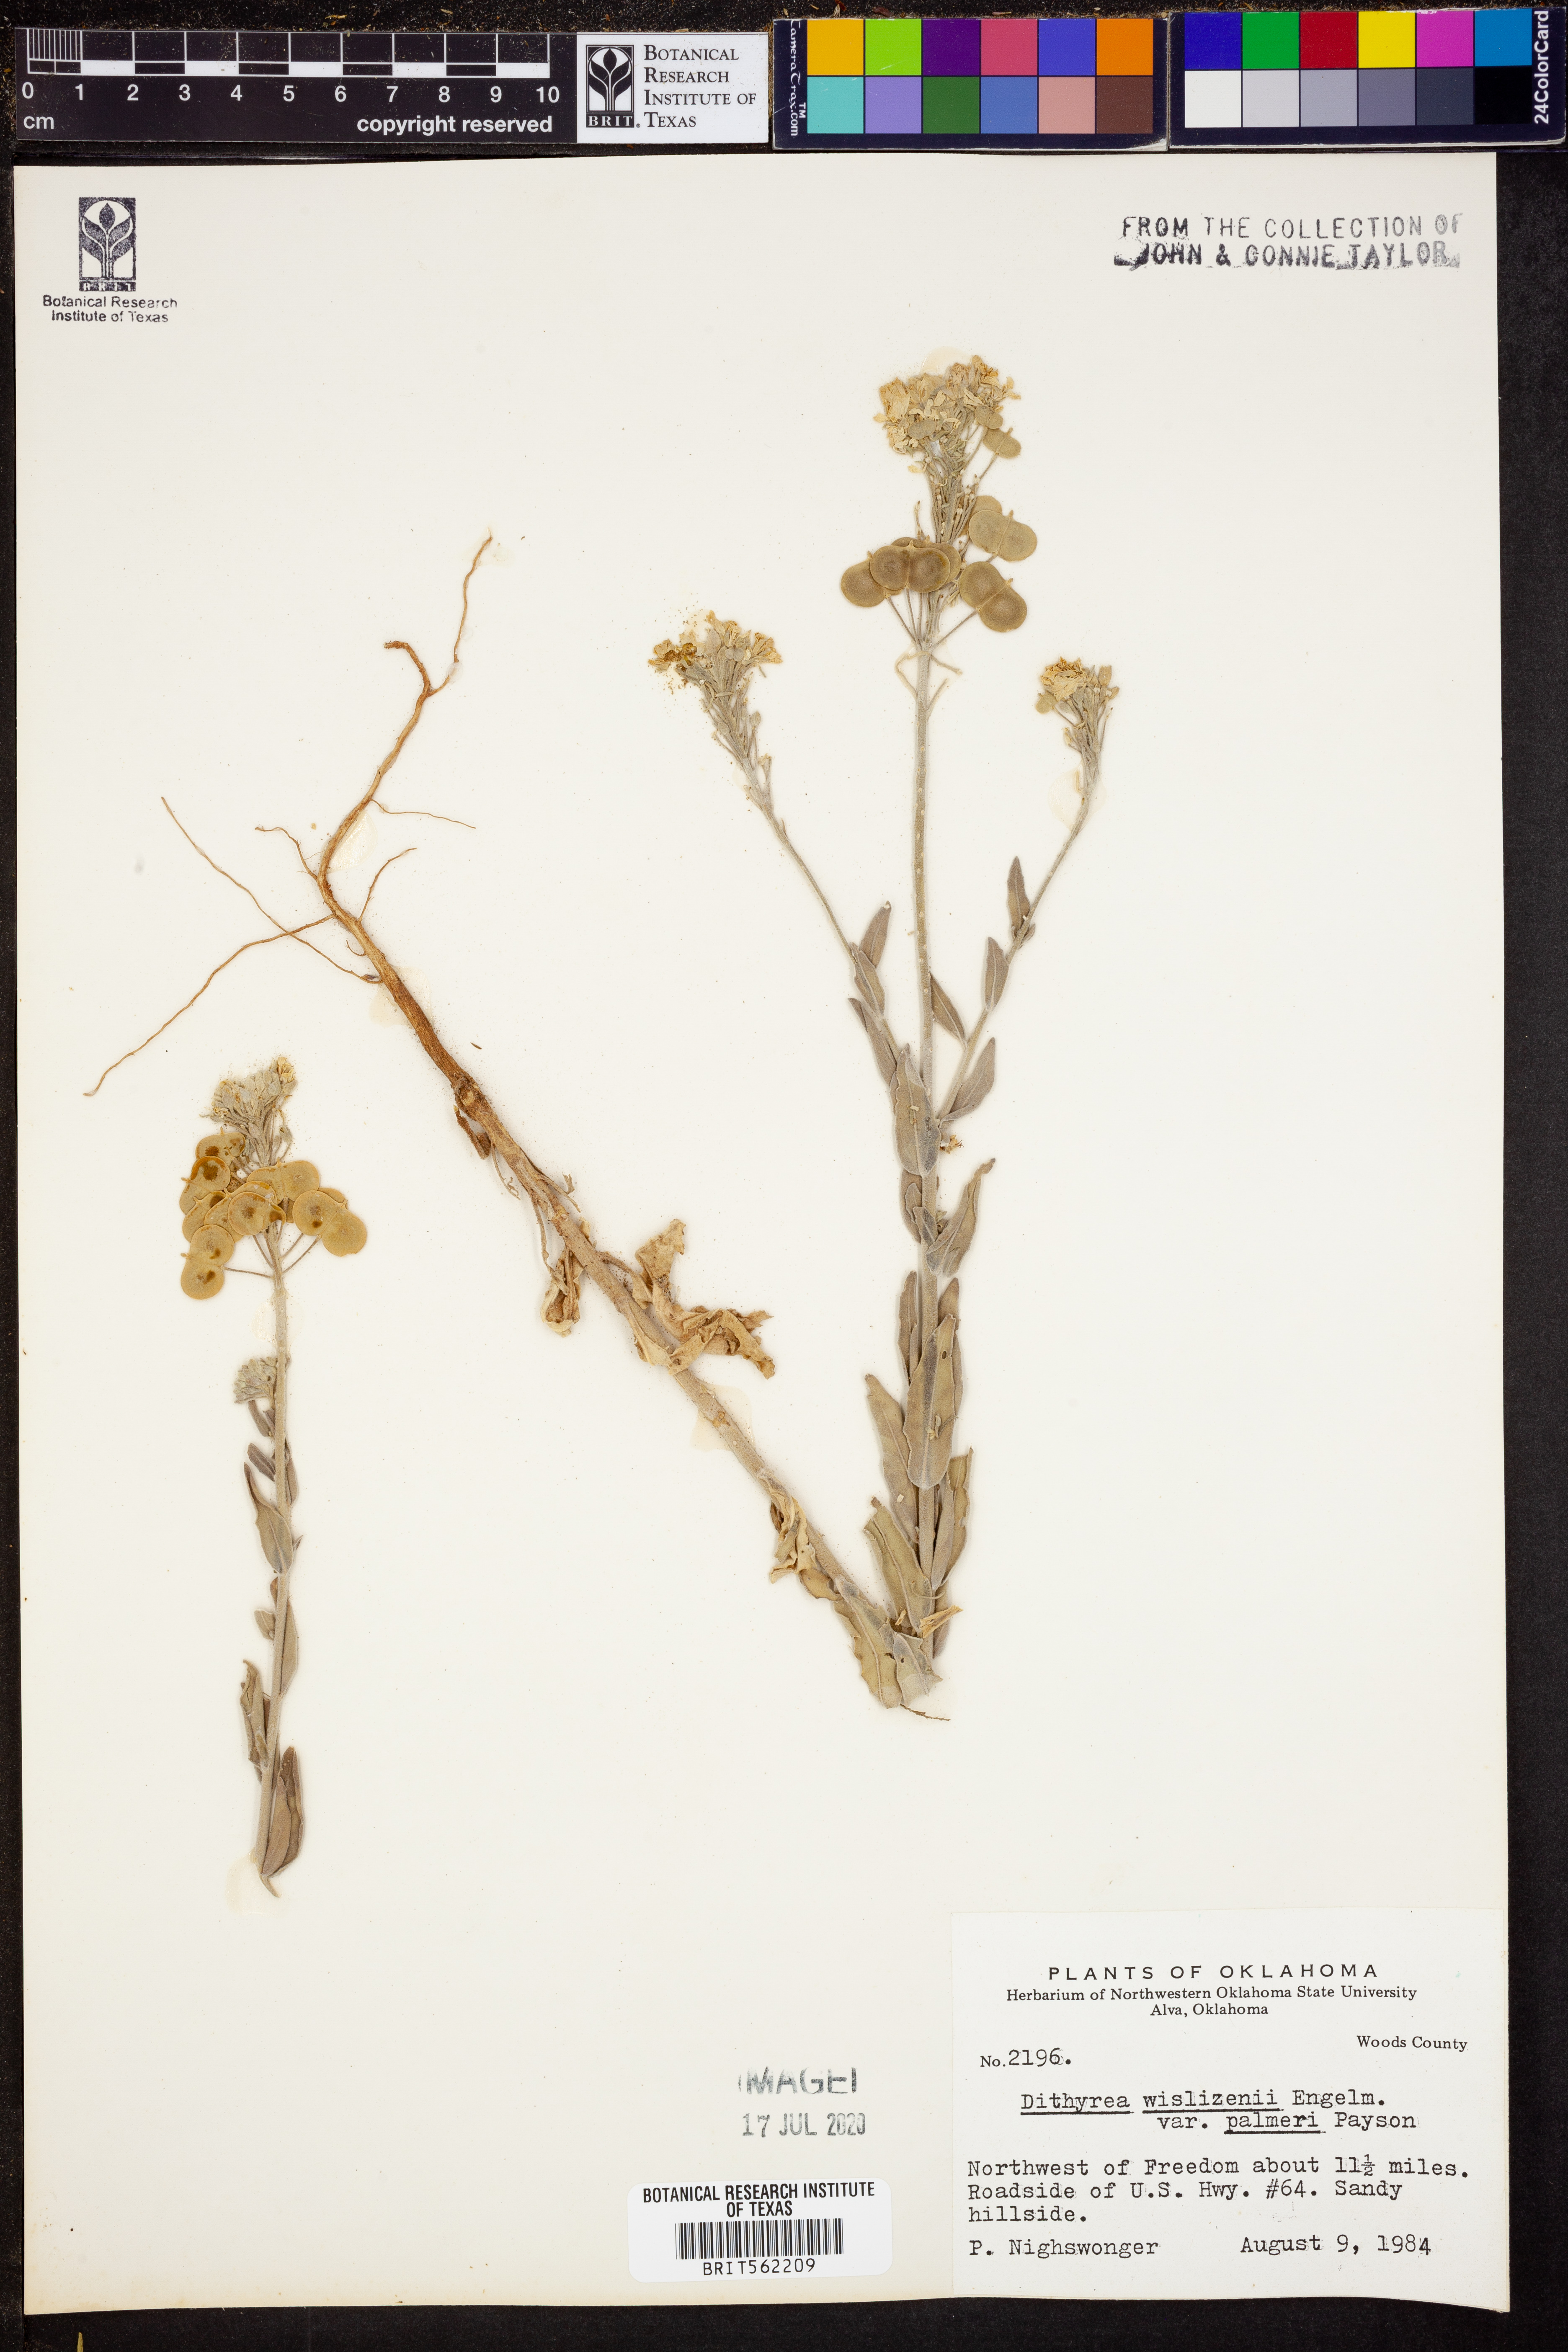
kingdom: Plantae
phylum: Tracheophyta
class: Magnoliopsida
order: Brassicales
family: Brassicaceae
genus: Dimorphocarpa
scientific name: Dimorphocarpa candicans
